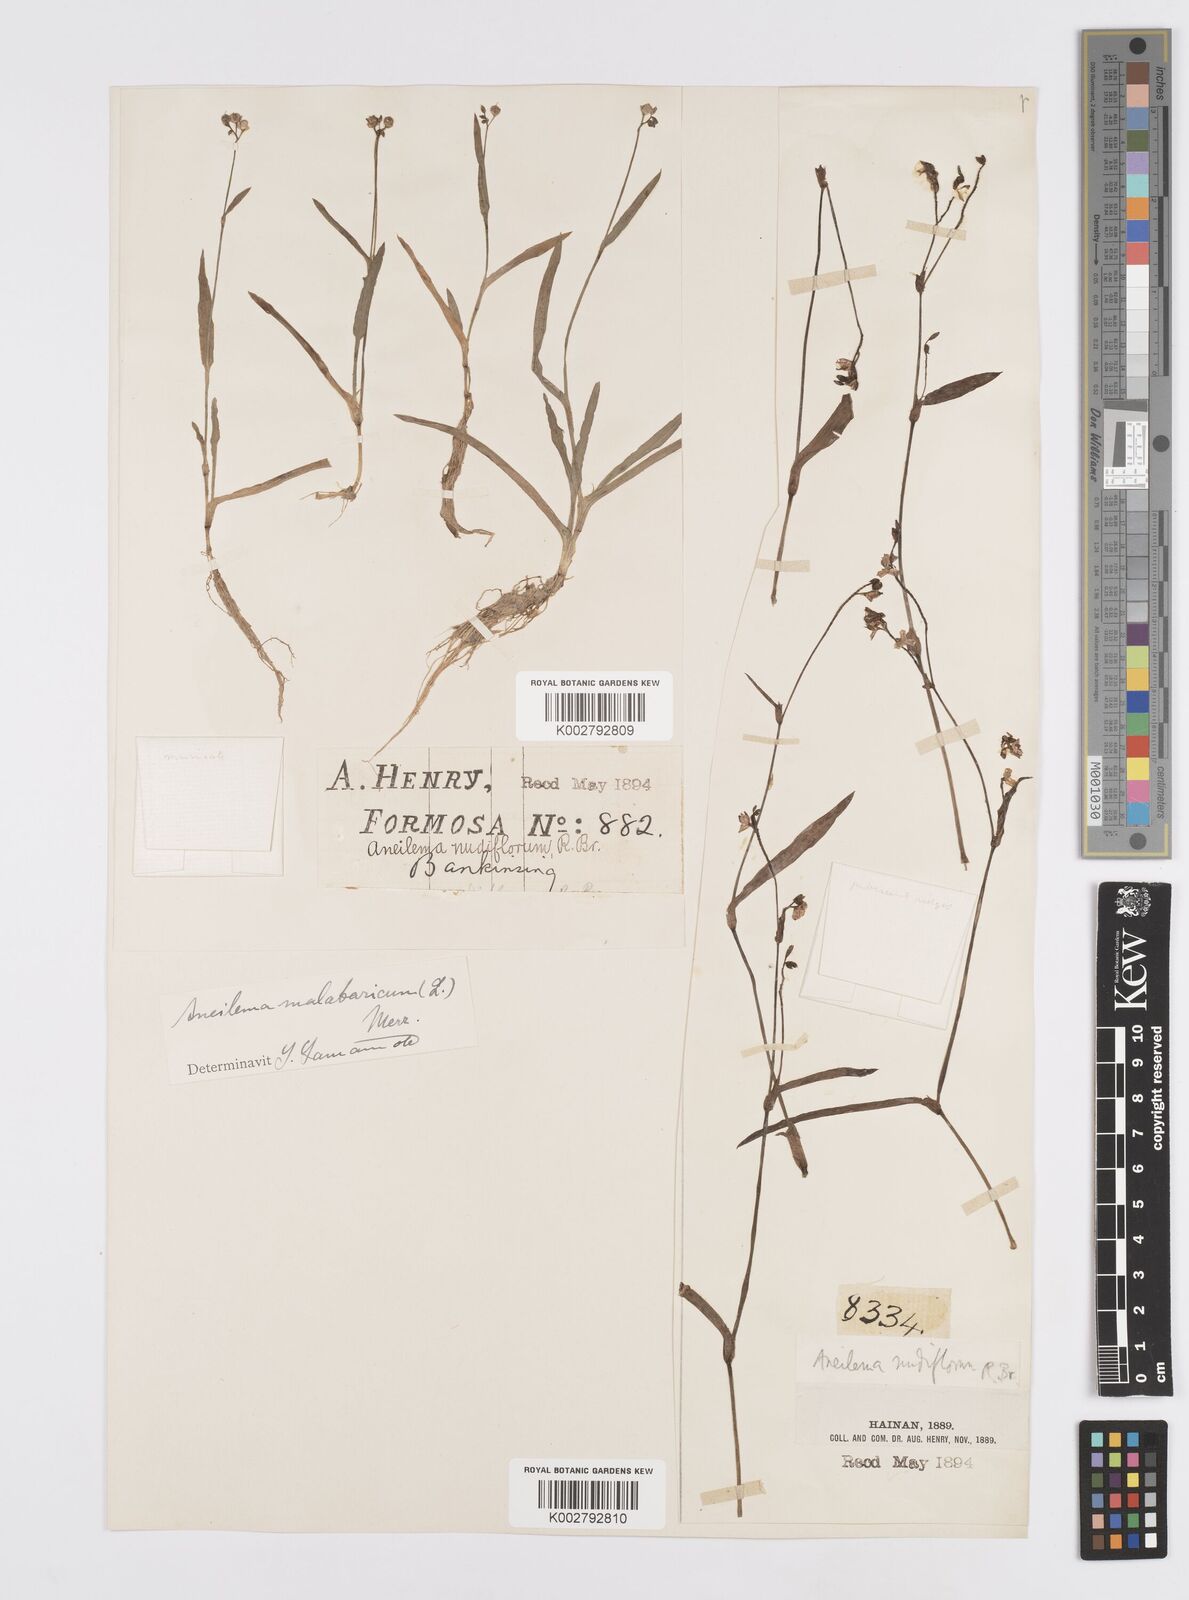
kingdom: Plantae
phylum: Tracheophyta
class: Liliopsida
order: Commelinales
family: Commelinaceae
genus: Murdannia
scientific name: Murdannia
